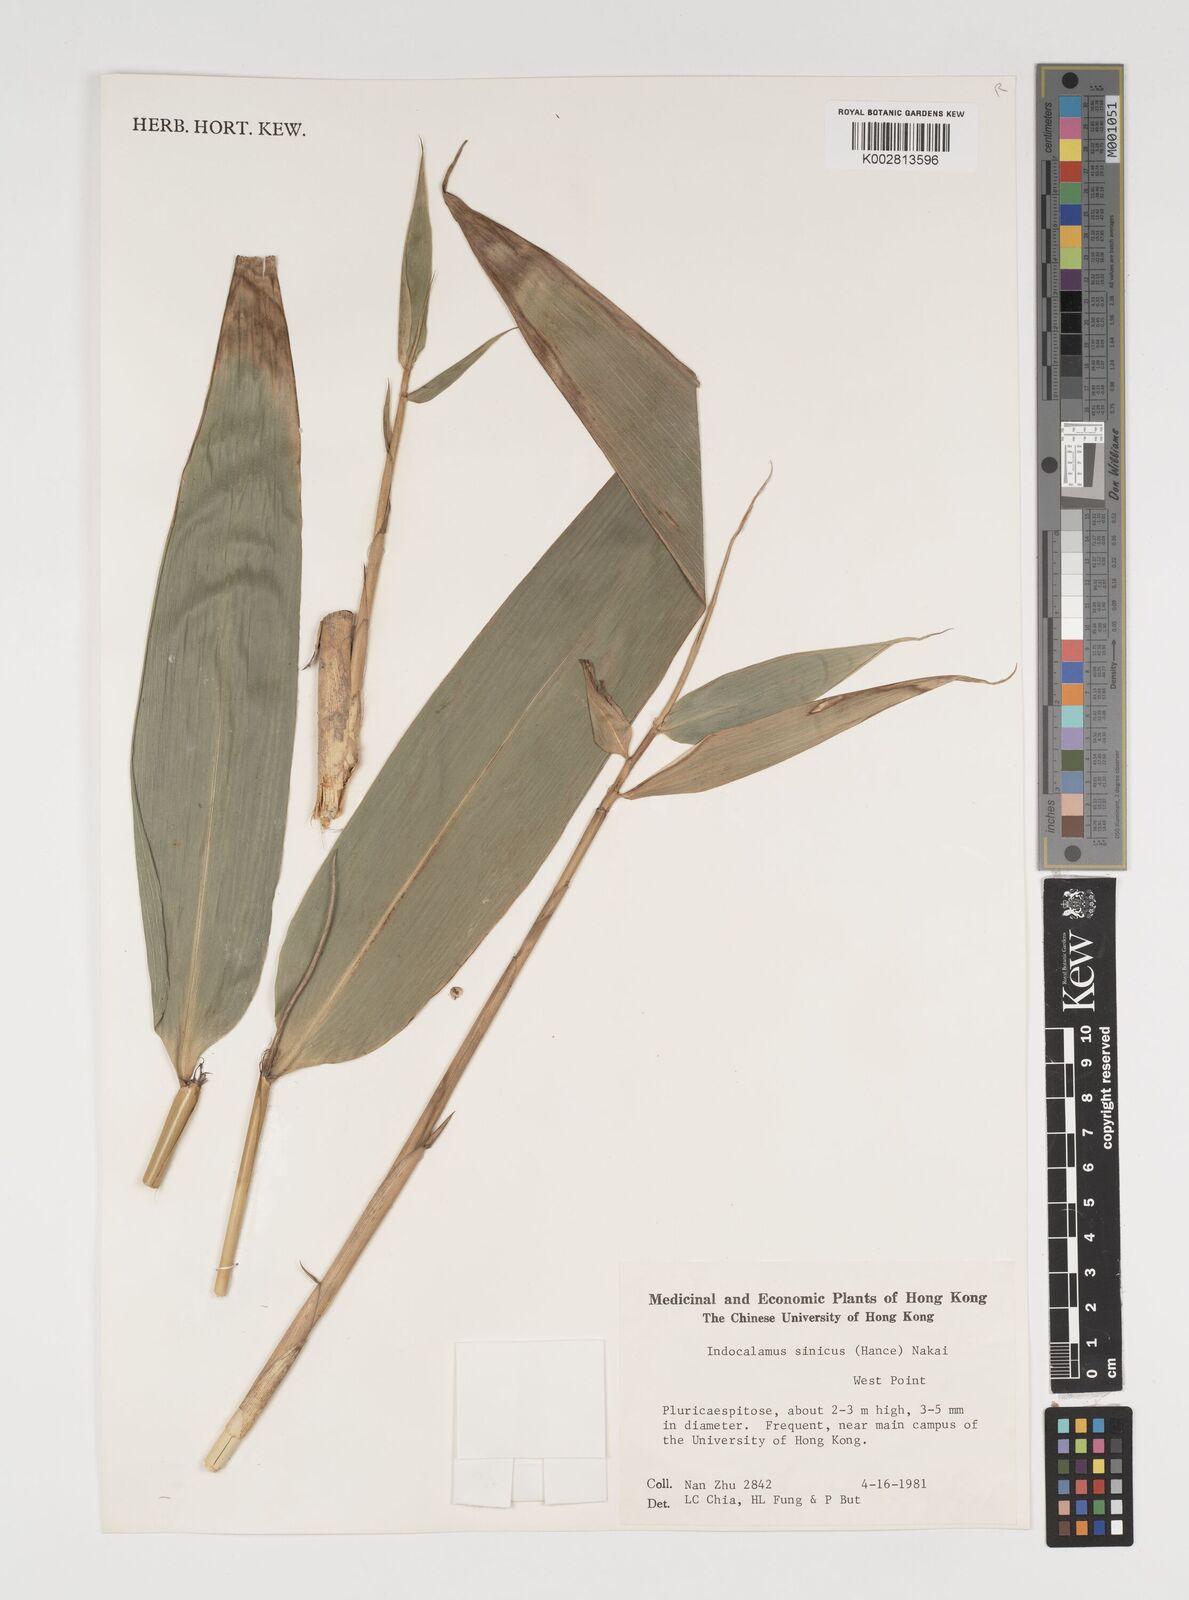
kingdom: Plantae
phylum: Tracheophyta
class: Liliopsida
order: Poales
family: Poaceae
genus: Indocalamus
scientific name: Indocalamus sinicus
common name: Chinese cane
